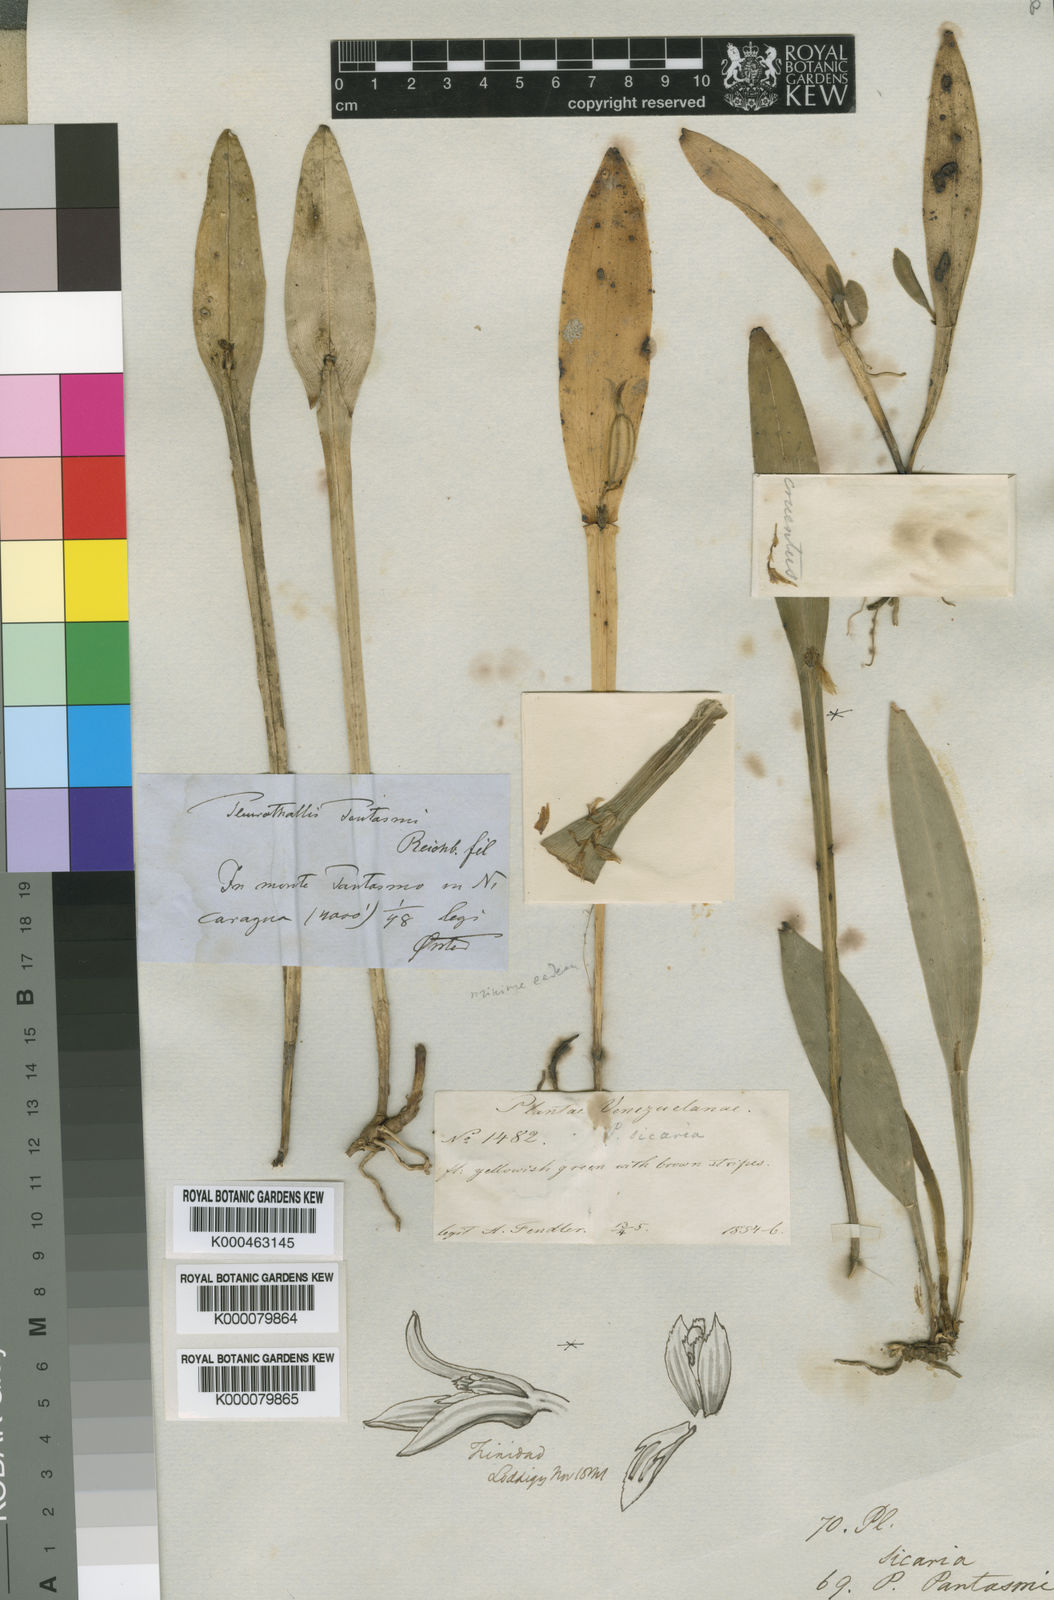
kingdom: Plantae
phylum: Tracheophyta
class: Liliopsida
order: Asparagales
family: Orchidaceae
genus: Acianthera
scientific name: Acianthera pantasmi
